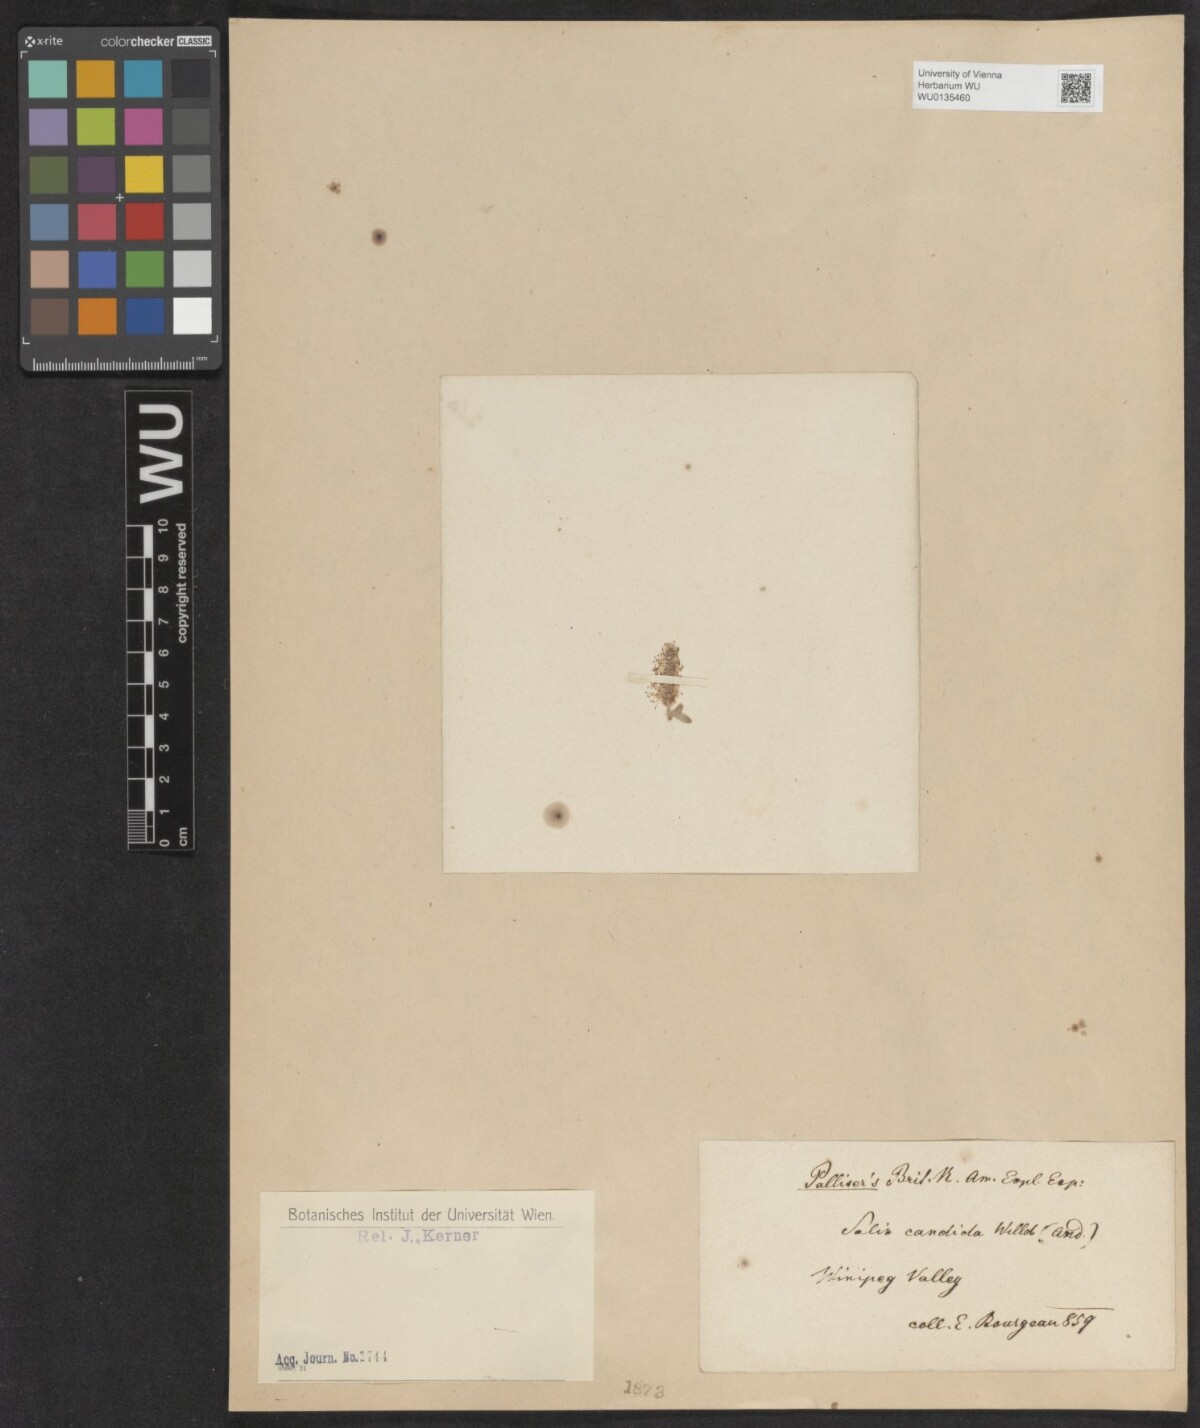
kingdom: Plantae
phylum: Tracheophyta
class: Magnoliopsida
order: Malpighiales
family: Salicaceae
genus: Salix
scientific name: Salix candida
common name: Hoary willow
